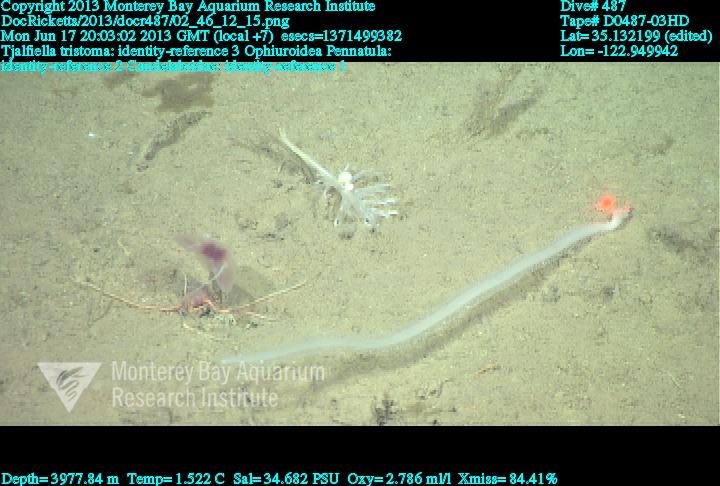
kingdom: Animalia
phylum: Cnidaria
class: Anthozoa
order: Scleralcyonacea
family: Pennatulidae
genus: Pennatula
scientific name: Pennatula
